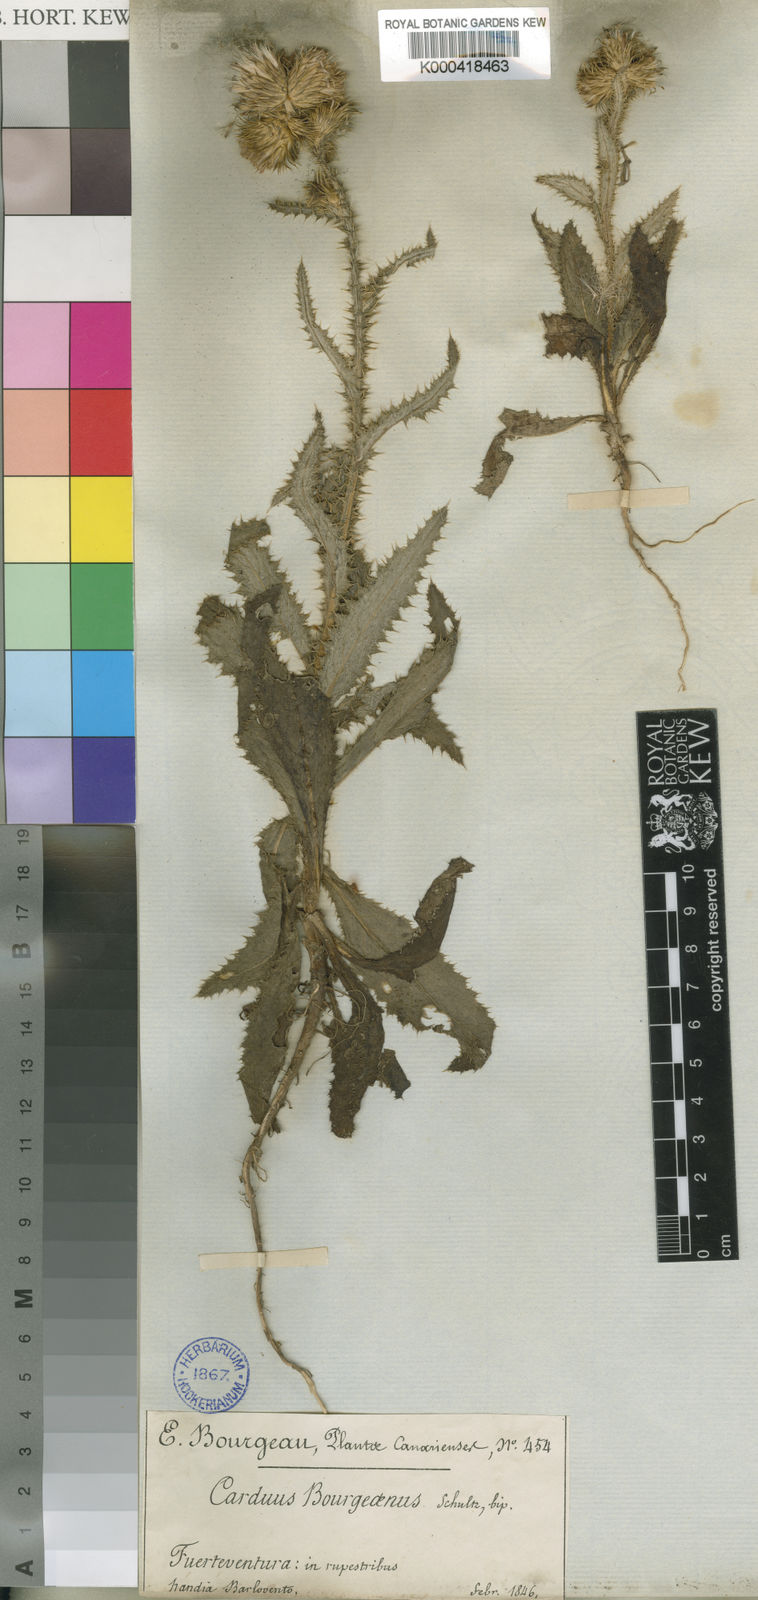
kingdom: Plantae
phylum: Tracheophyta
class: Magnoliopsida
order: Asterales
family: Asteraceae
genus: Carduus
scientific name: Carduus
